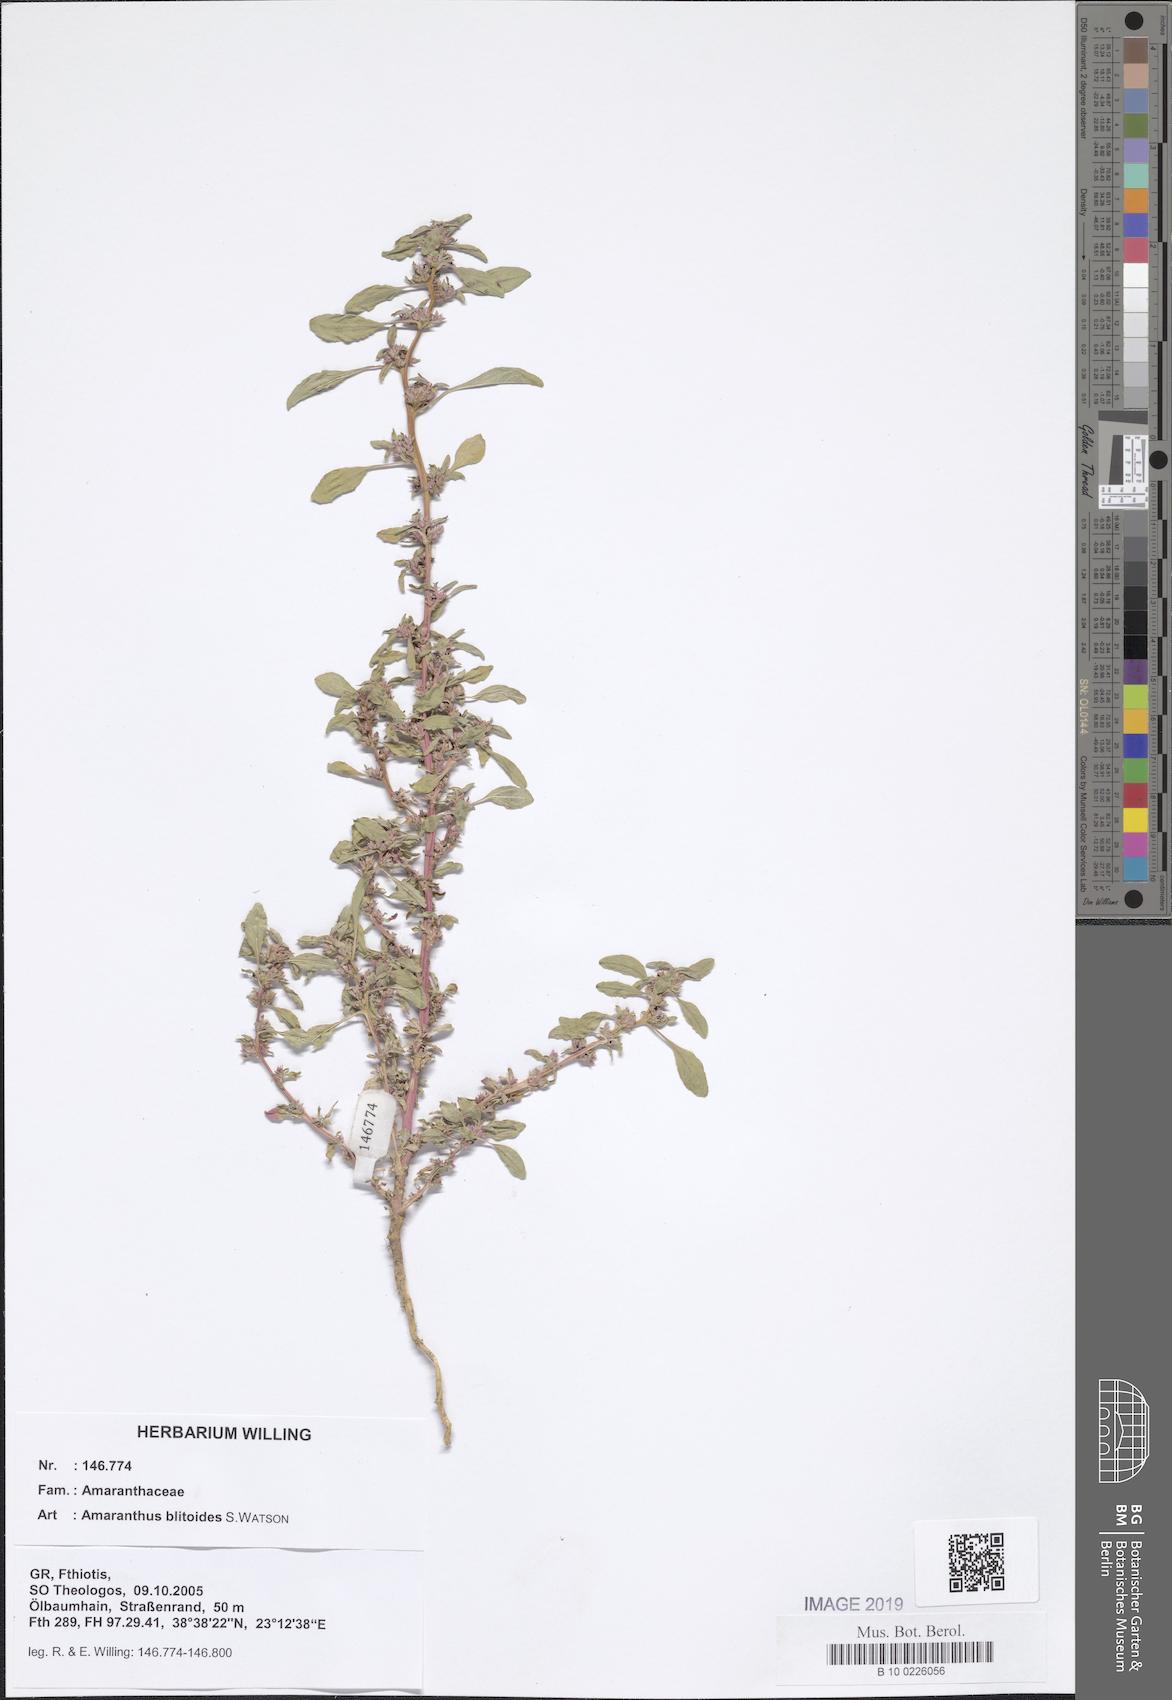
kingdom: Plantae
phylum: Tracheophyta
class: Magnoliopsida
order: Caryophyllales
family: Amaranthaceae
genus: Amaranthus
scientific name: Amaranthus blitoides
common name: Prostrate pigweed
